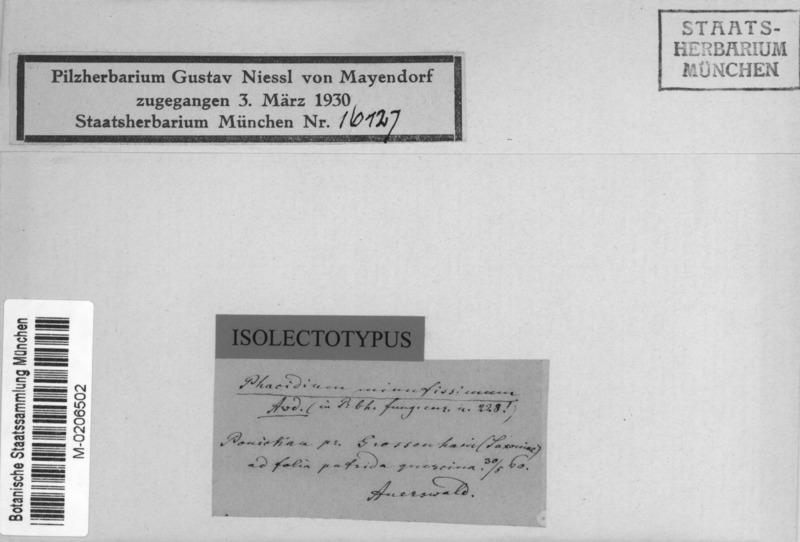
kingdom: Fungi
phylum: Ascomycota
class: Leotiomycetes
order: Helotiales
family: Discinellaceae
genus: Naevala
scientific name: Naevala perexigua
